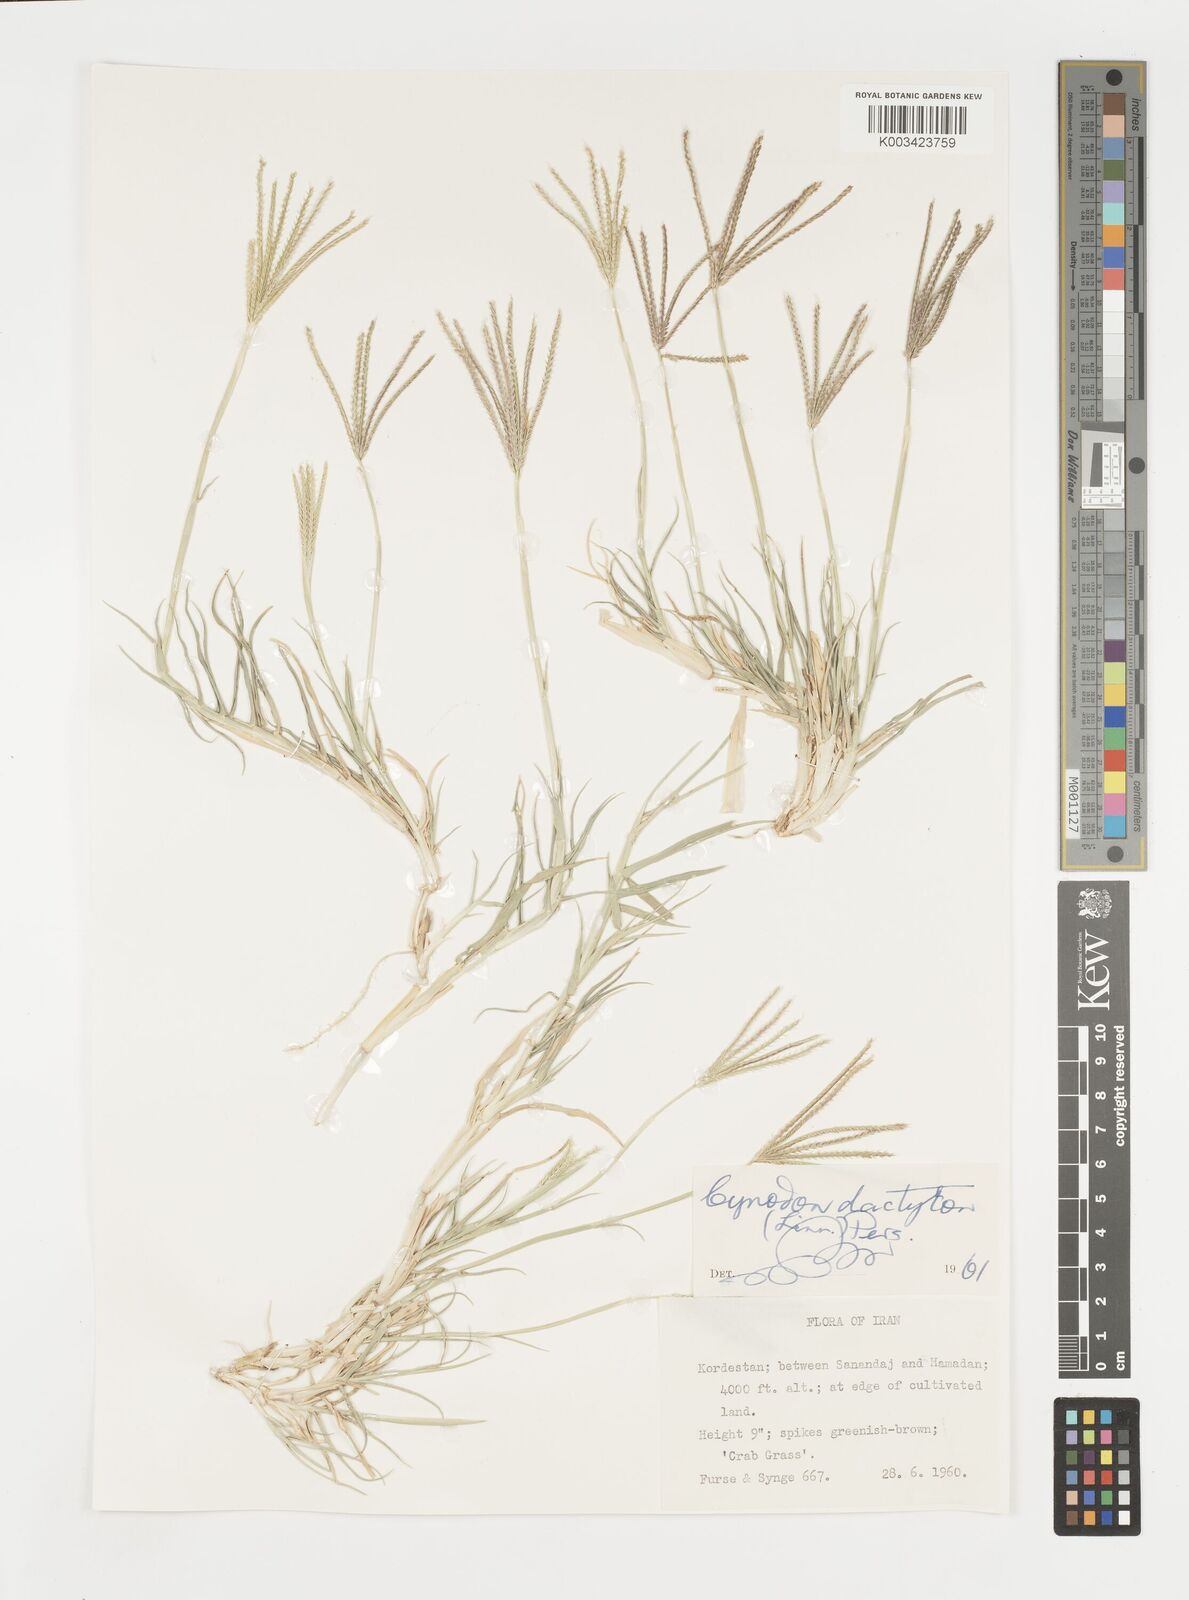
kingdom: Plantae
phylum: Tracheophyta
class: Liliopsida
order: Poales
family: Poaceae
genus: Cynodon
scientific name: Cynodon dactylon
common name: Bermuda grass
